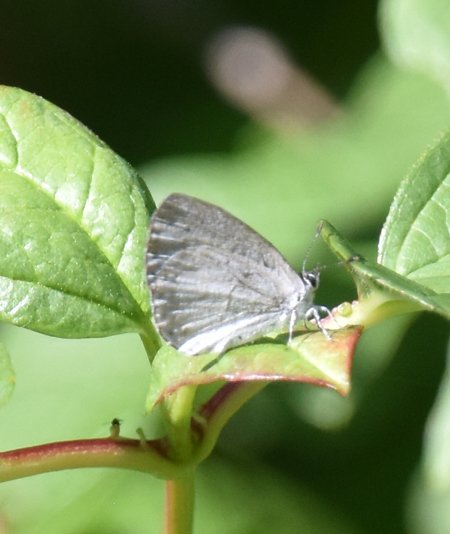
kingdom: Animalia
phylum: Arthropoda
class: Insecta
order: Lepidoptera
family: Lycaenidae
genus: Celastrina
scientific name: Celastrina
